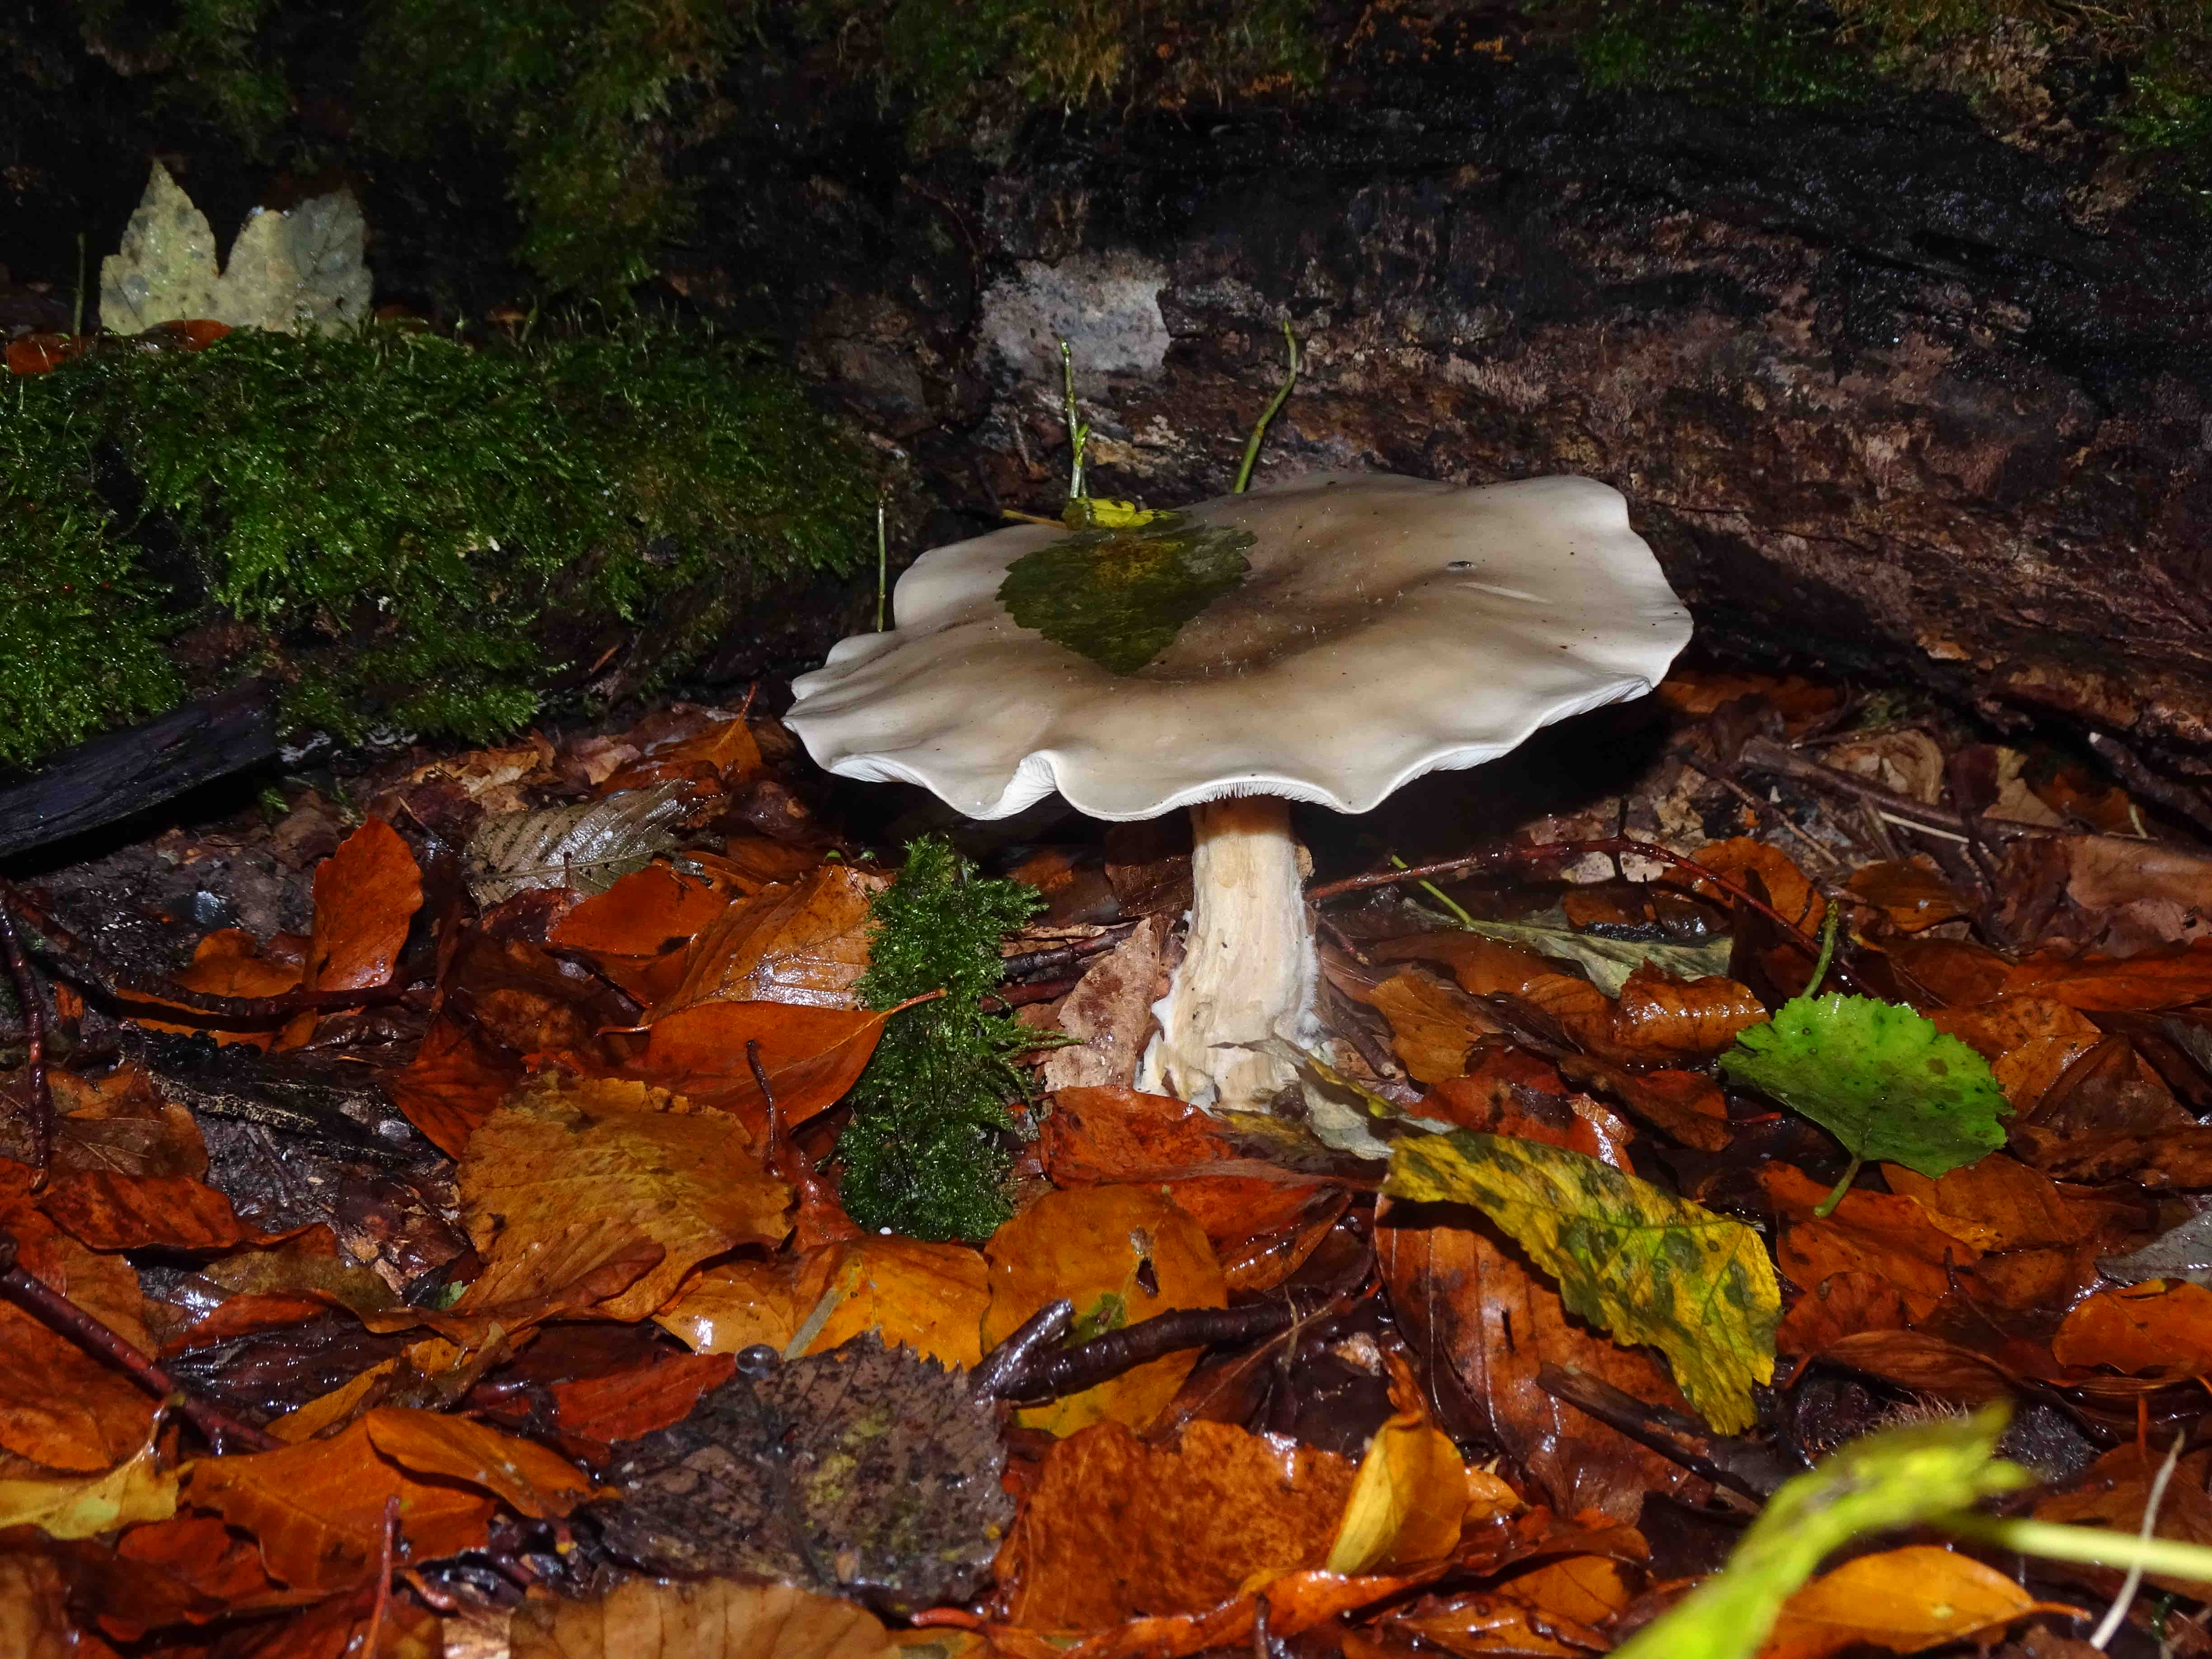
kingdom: Fungi
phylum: Basidiomycota
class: Agaricomycetes
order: Agaricales
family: Tricholomataceae
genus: Clitocybe
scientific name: Clitocybe nebularis
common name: tåge-tragthat
